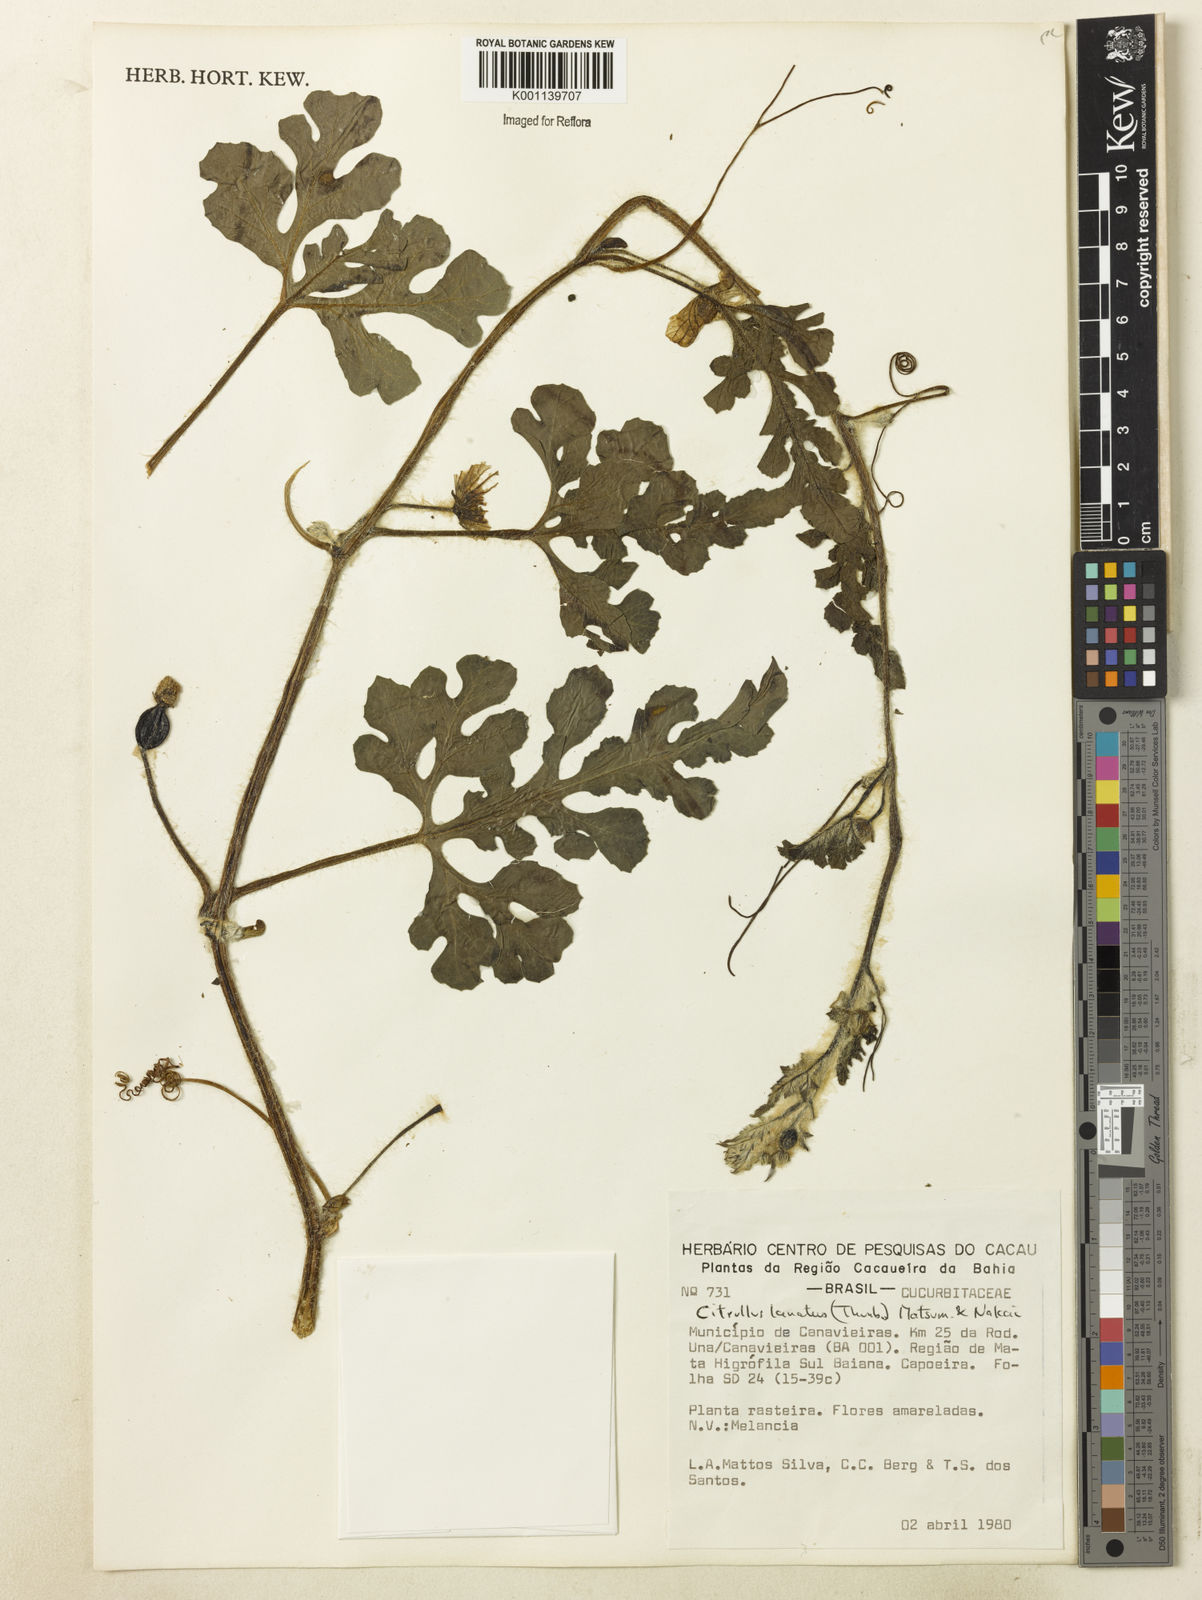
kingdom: Plantae
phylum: Tracheophyta
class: Magnoliopsida
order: Cucurbitales
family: Cucurbitaceae
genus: Citrullus
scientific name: Citrullus lanatus
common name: Watermelon
